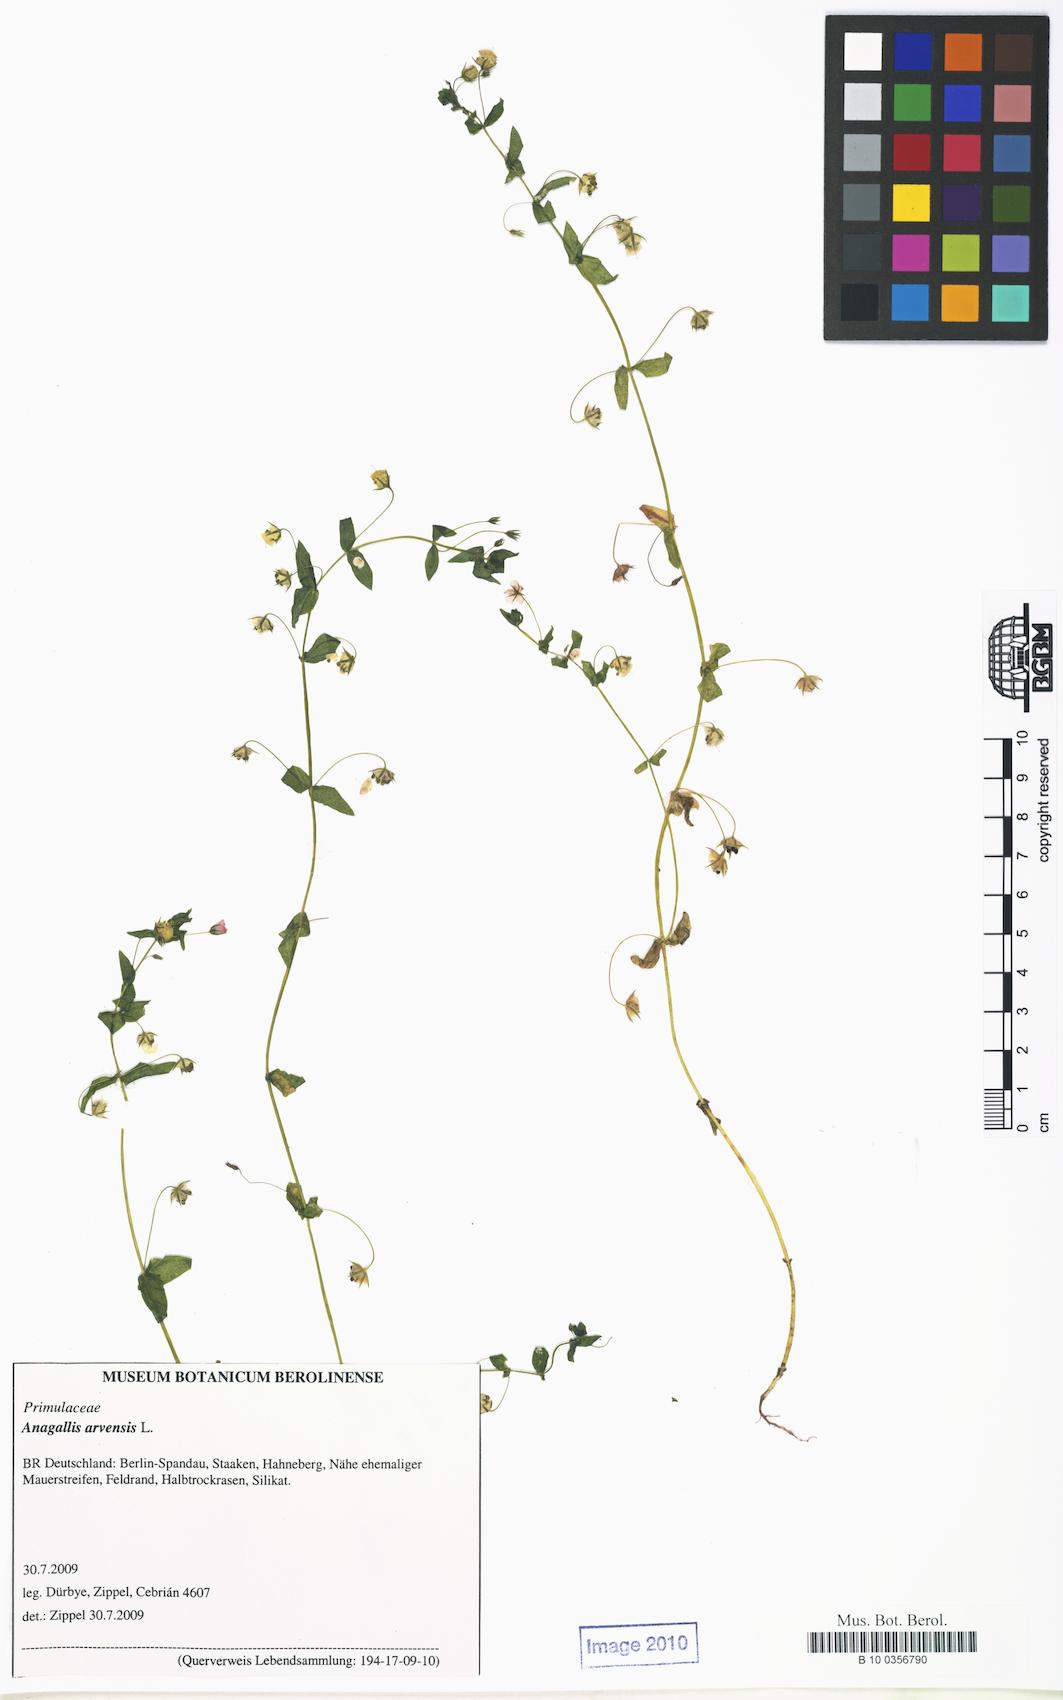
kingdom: Plantae
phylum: Tracheophyta
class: Magnoliopsida
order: Ericales
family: Primulaceae
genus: Lysimachia
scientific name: Lysimachia arvensis
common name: Scarlet pimpernel
